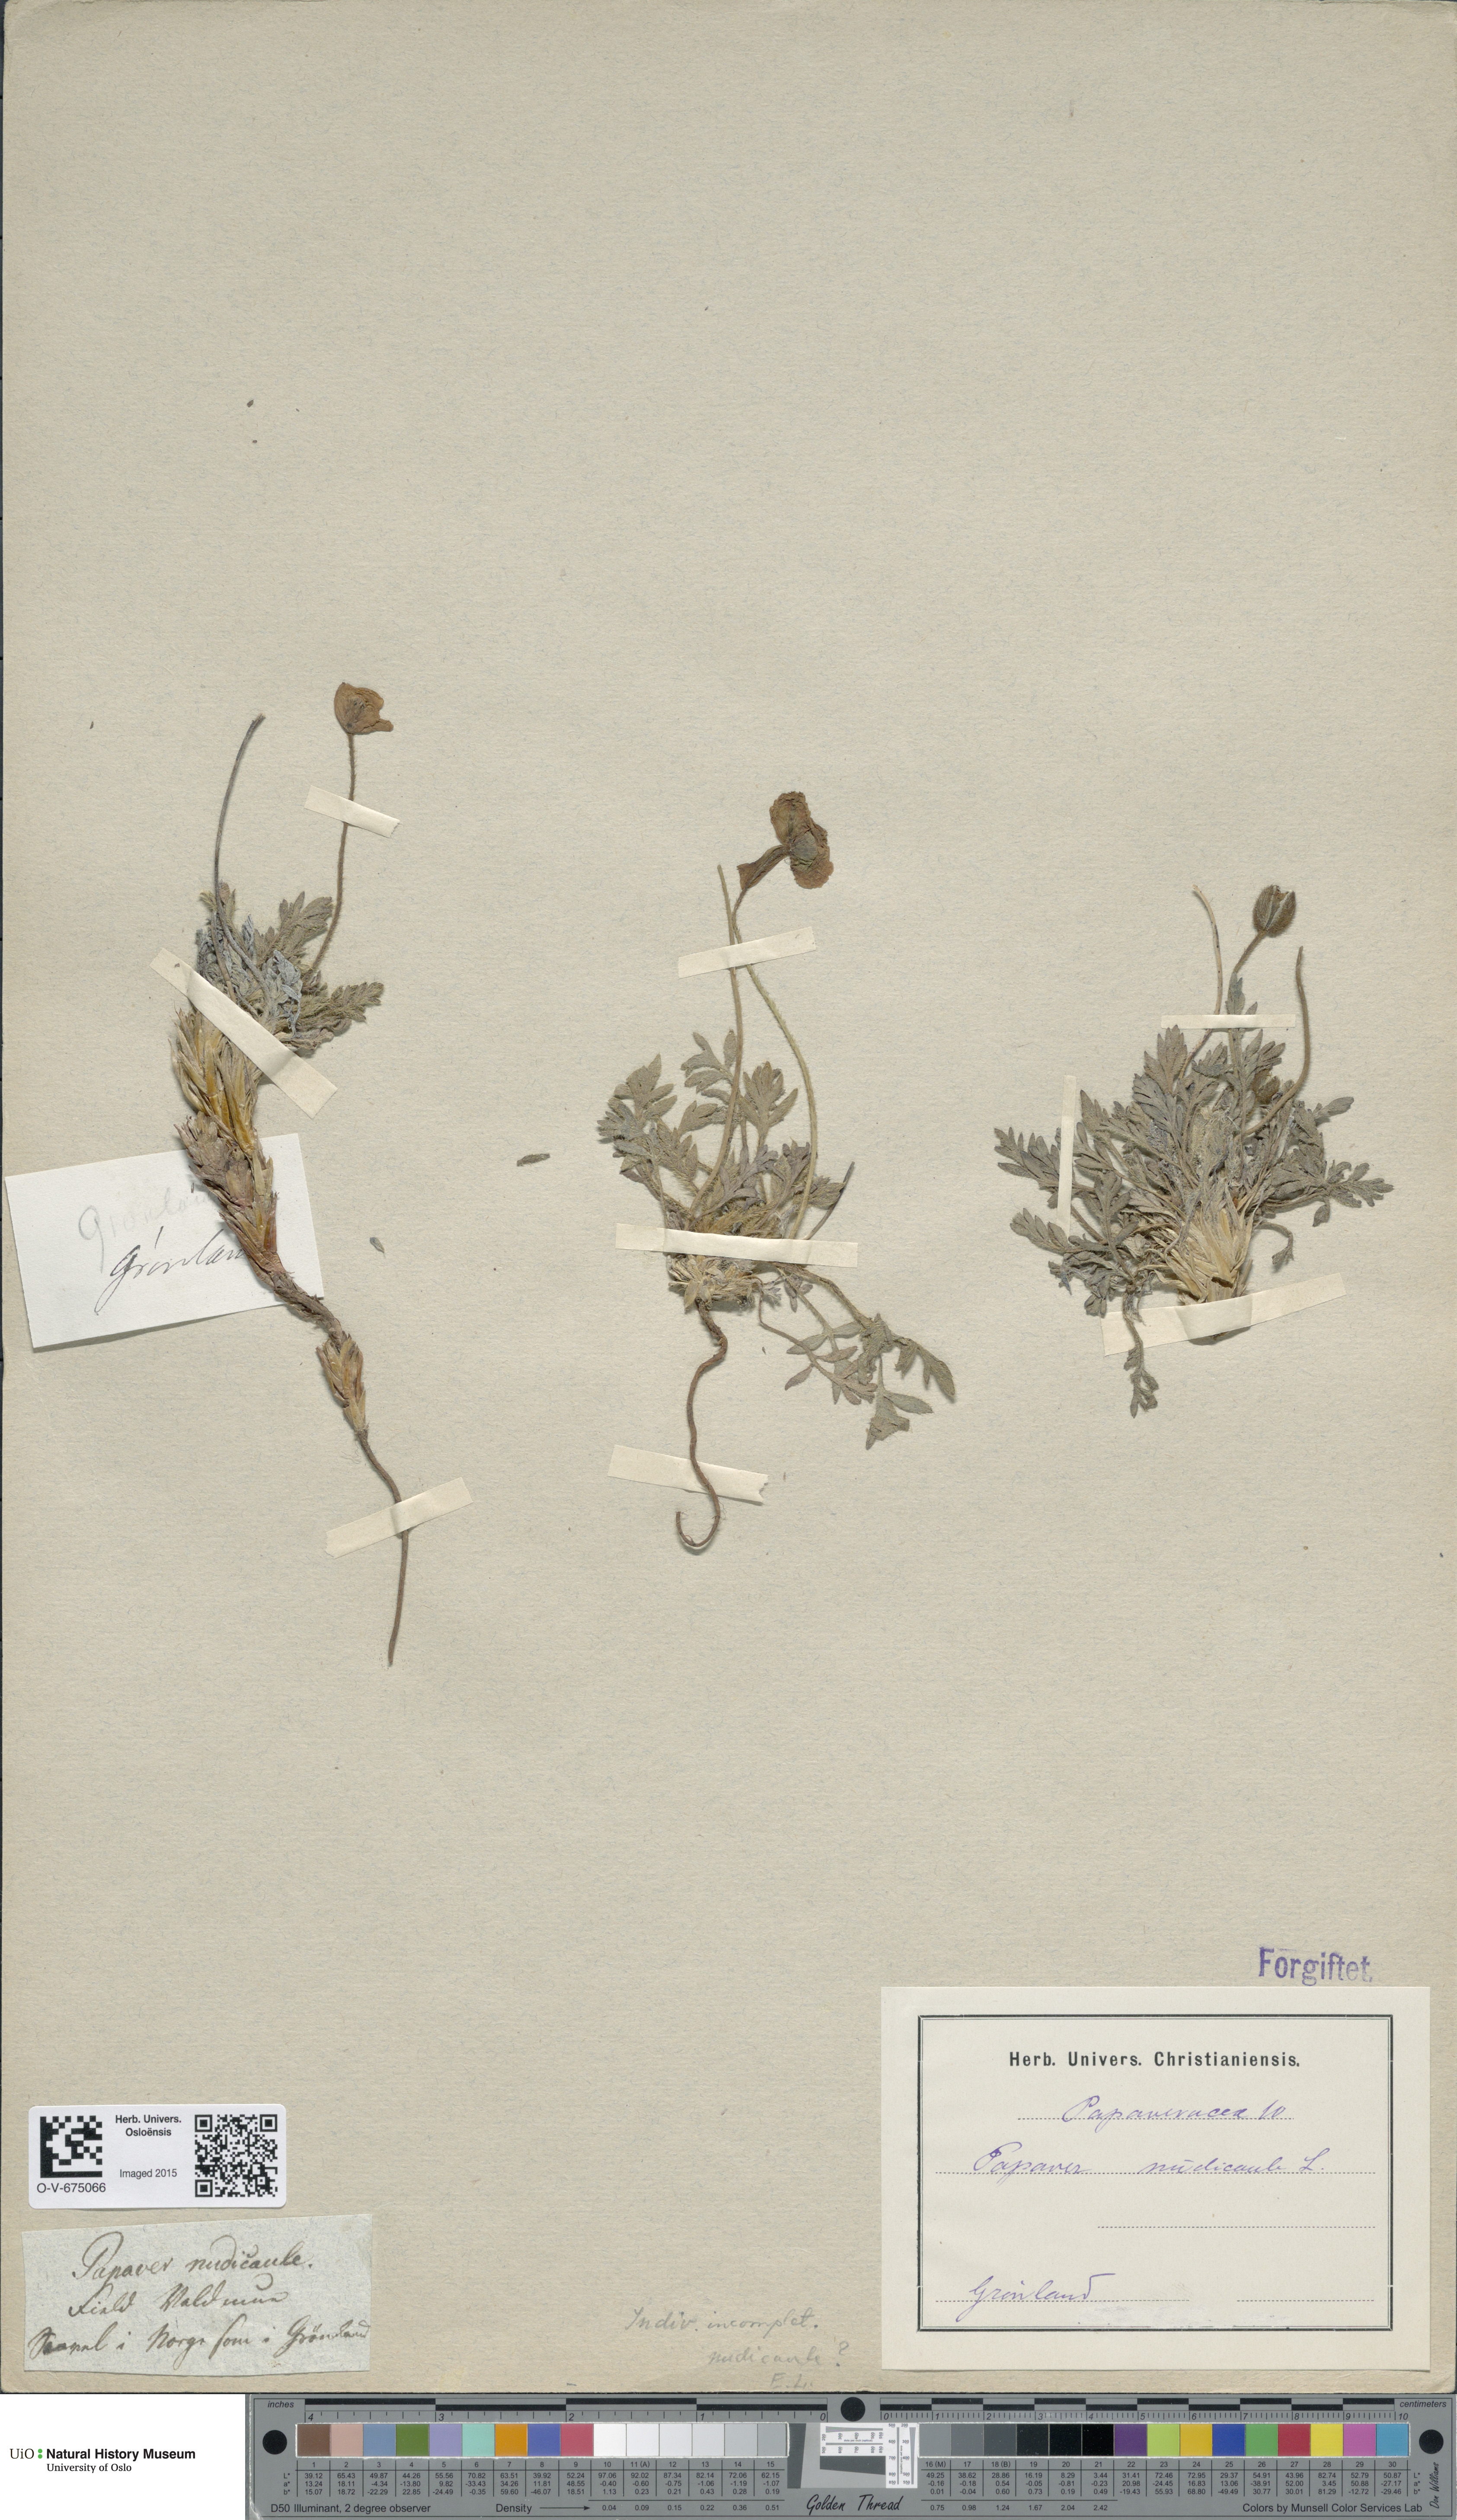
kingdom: Plantae
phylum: Tracheophyta
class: Magnoliopsida
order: Ranunculales
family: Papaveraceae
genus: Papaver
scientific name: Papaver croceum
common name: Siberian poppy
